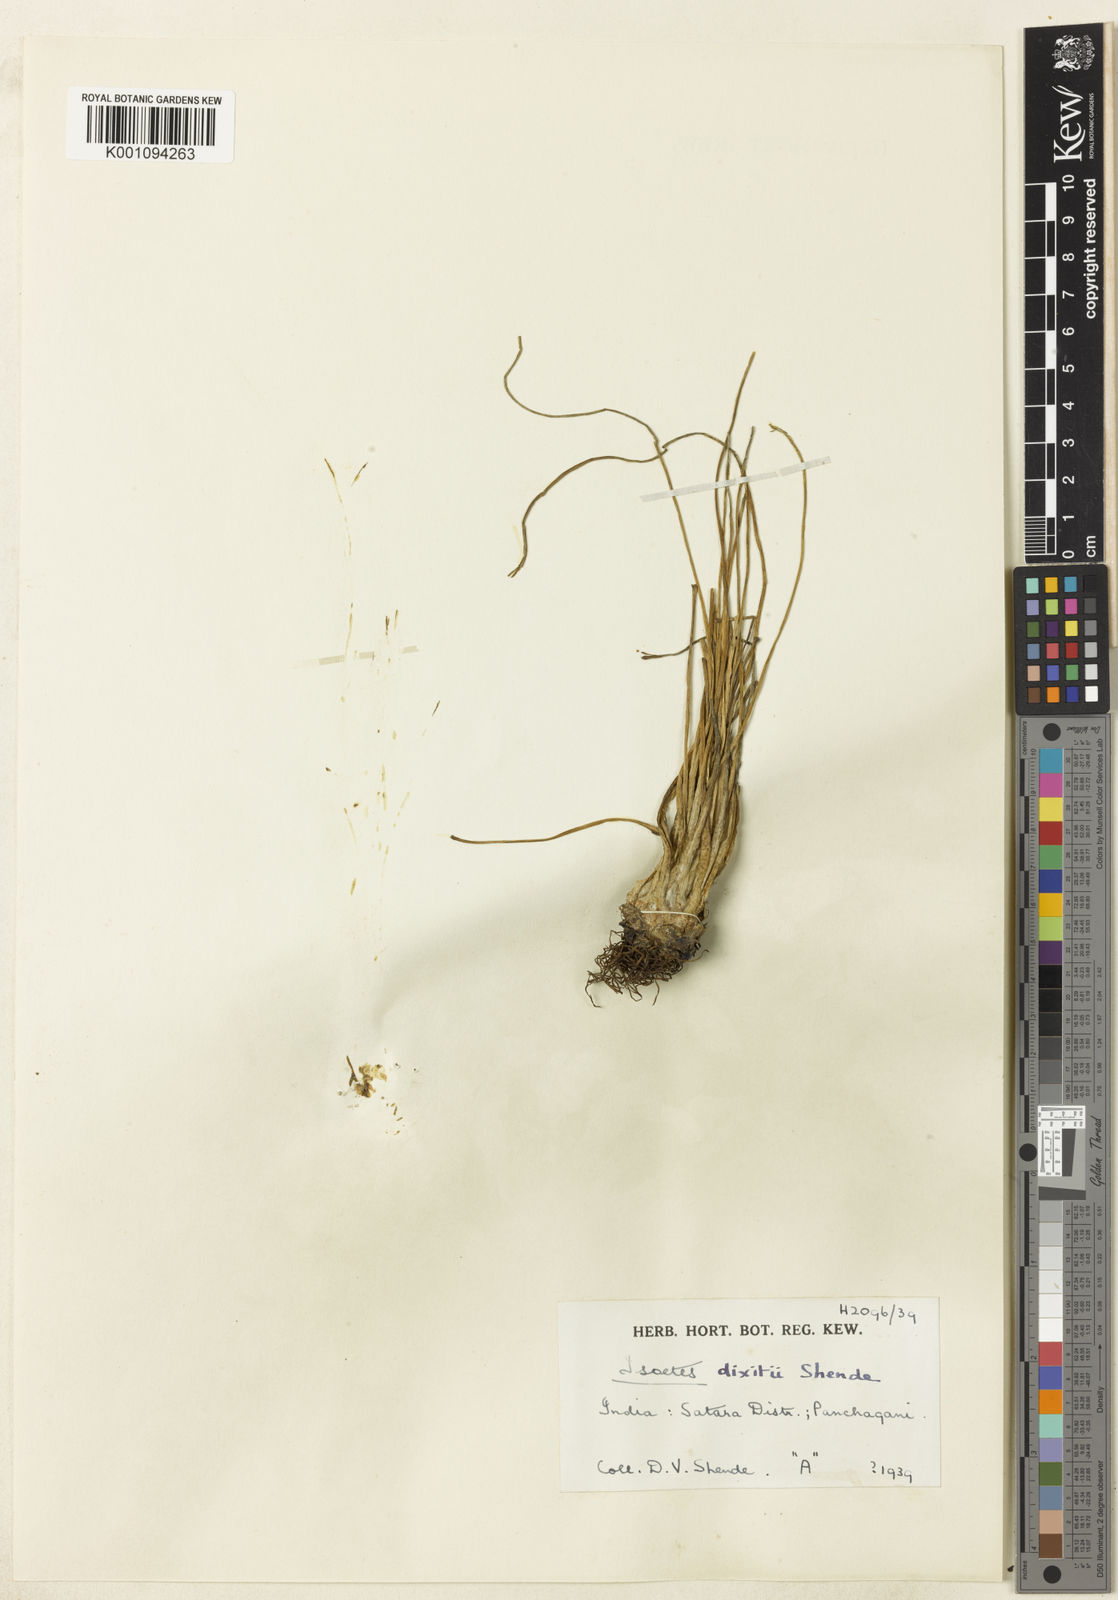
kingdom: Plantae
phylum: Tracheophyta
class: Lycopodiopsida
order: Isoetales
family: Isoetaceae
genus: Isoetes
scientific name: Isoetes dixitii
